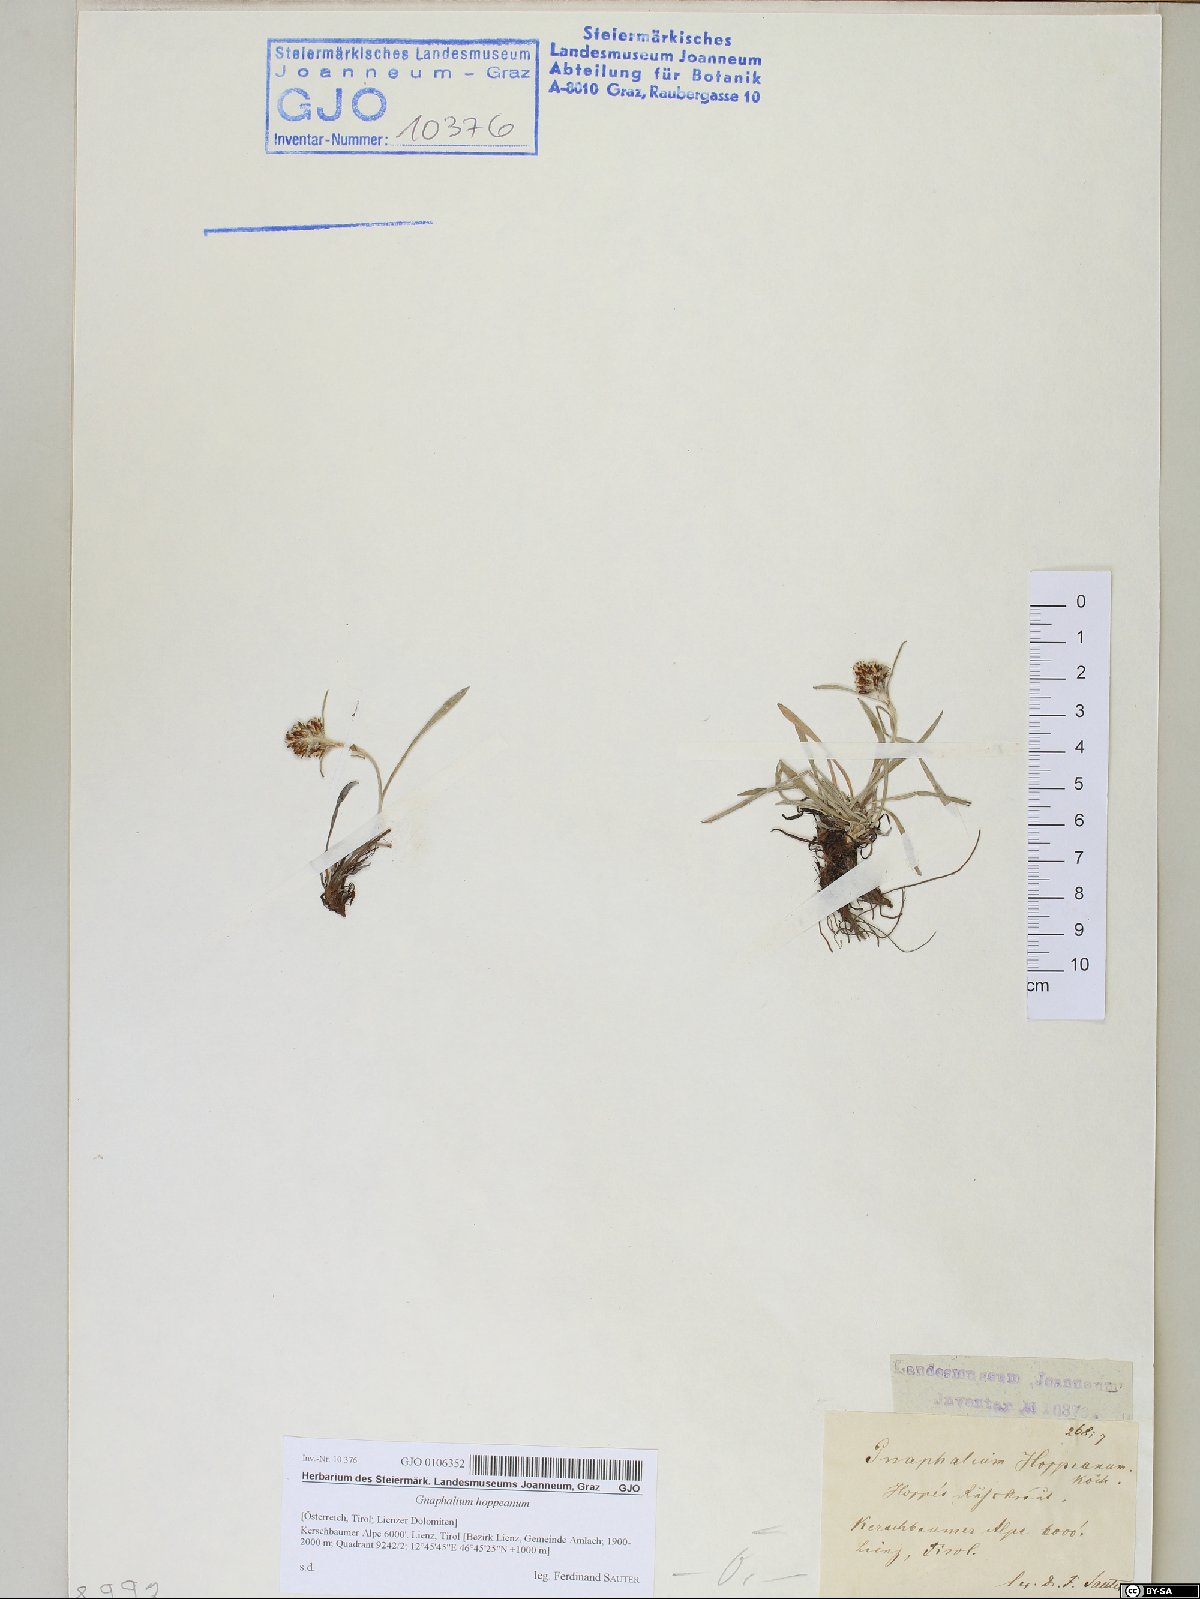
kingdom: Plantae
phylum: Tracheophyta
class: Magnoliopsida
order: Asterales
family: Asteraceae
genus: Omalotheca
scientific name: Omalotheca hoppeana
